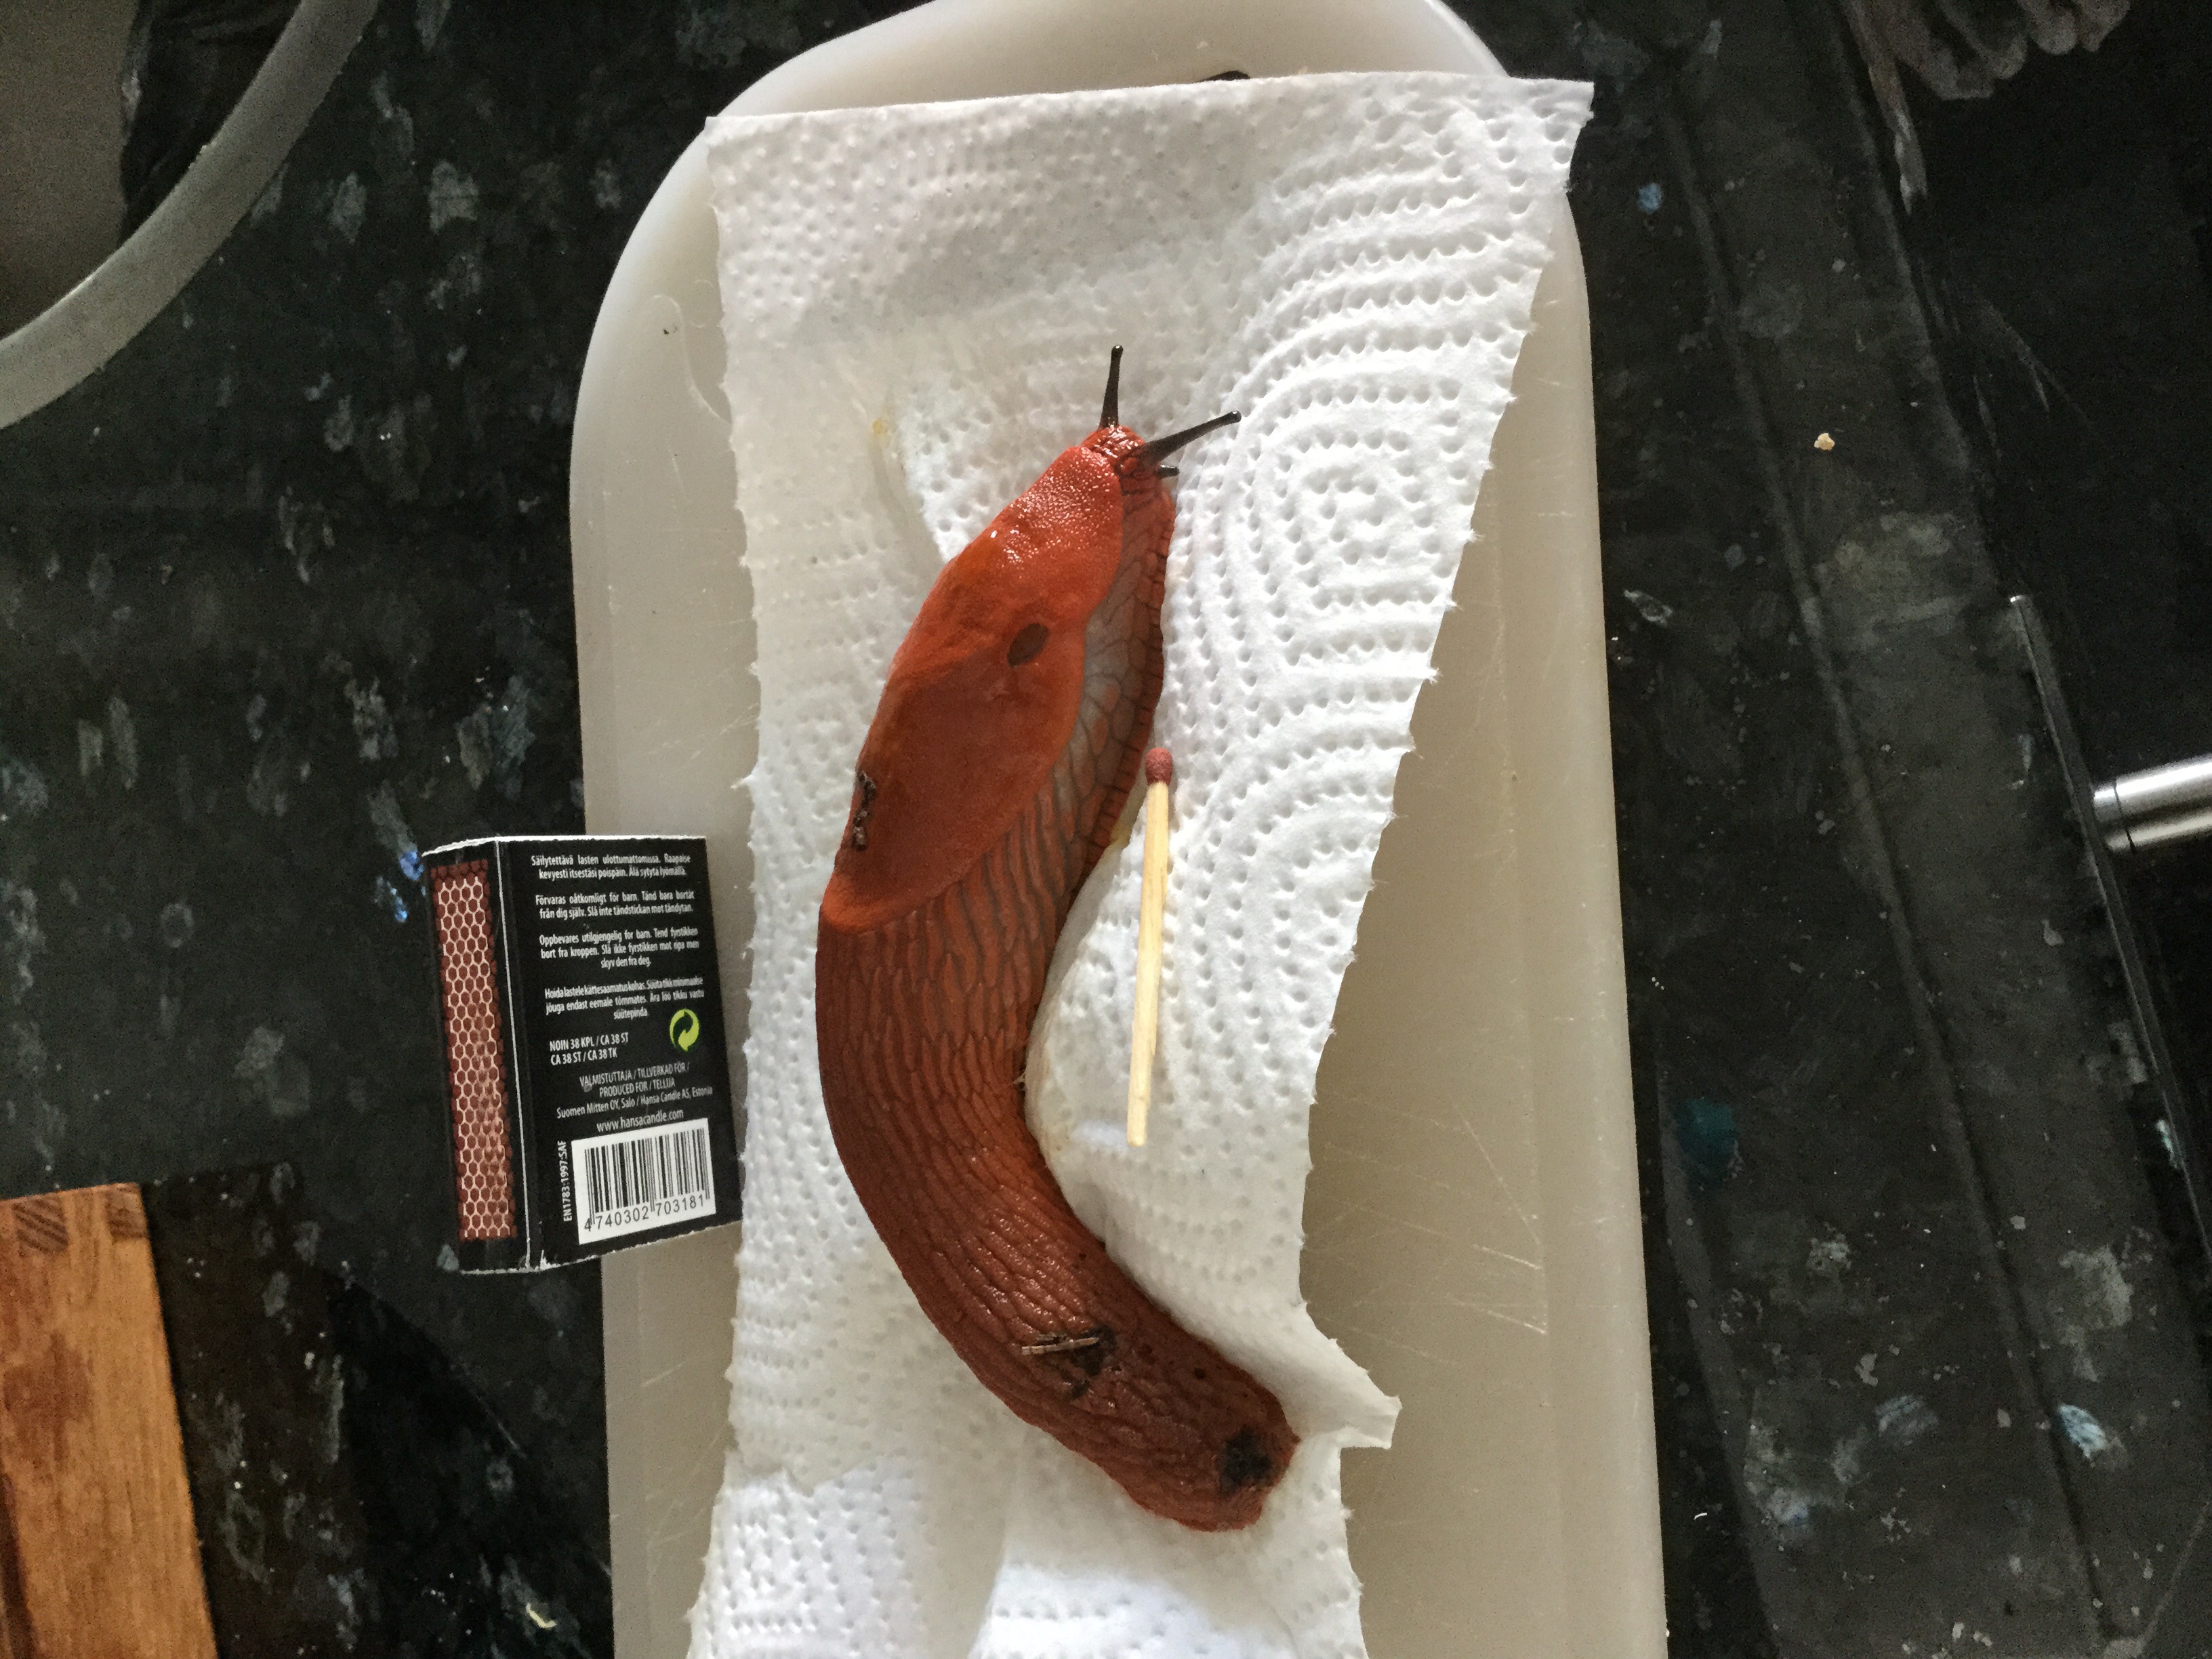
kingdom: Animalia
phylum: Mollusca
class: Gastropoda
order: Stylommatophora
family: Arionidae
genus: Arion
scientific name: Arion vulgaris
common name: Lusitanian slug
